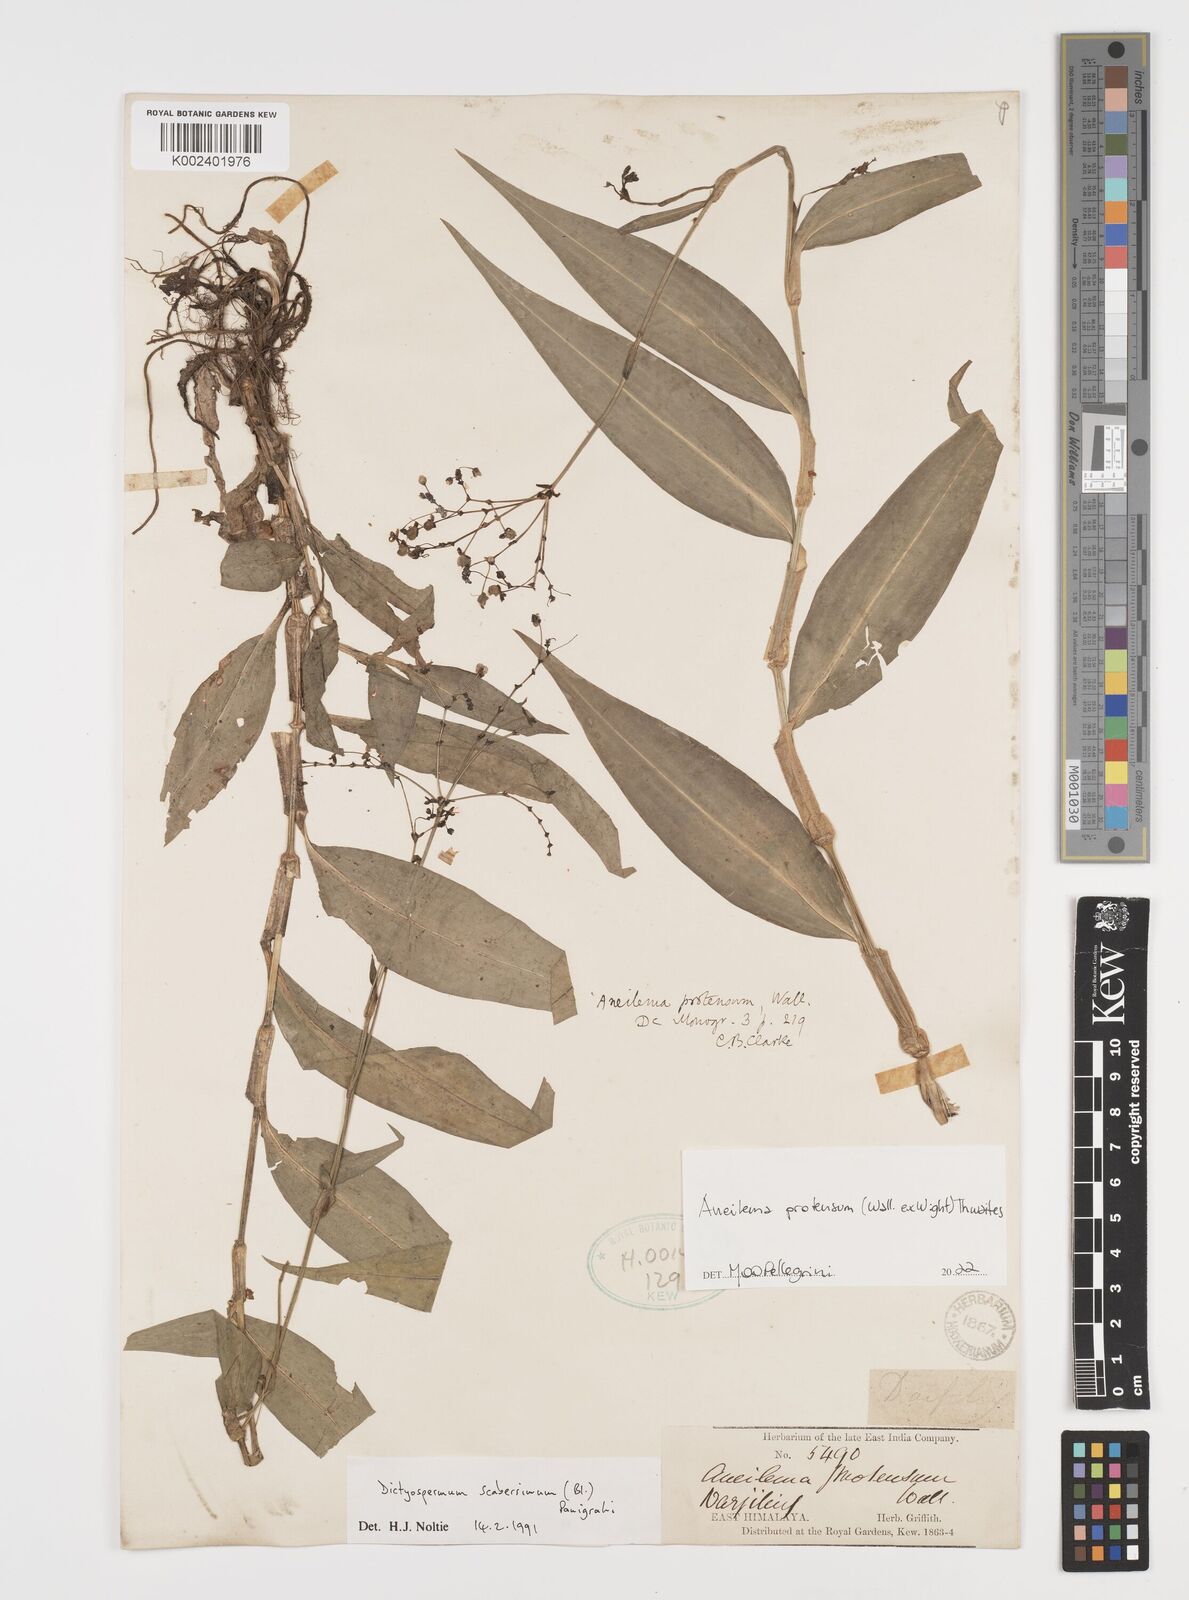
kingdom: Plantae
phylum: Tracheophyta
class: Liliopsida
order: Commelinales
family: Commelinaceae
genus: Rhopalephora
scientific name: Rhopalephora
